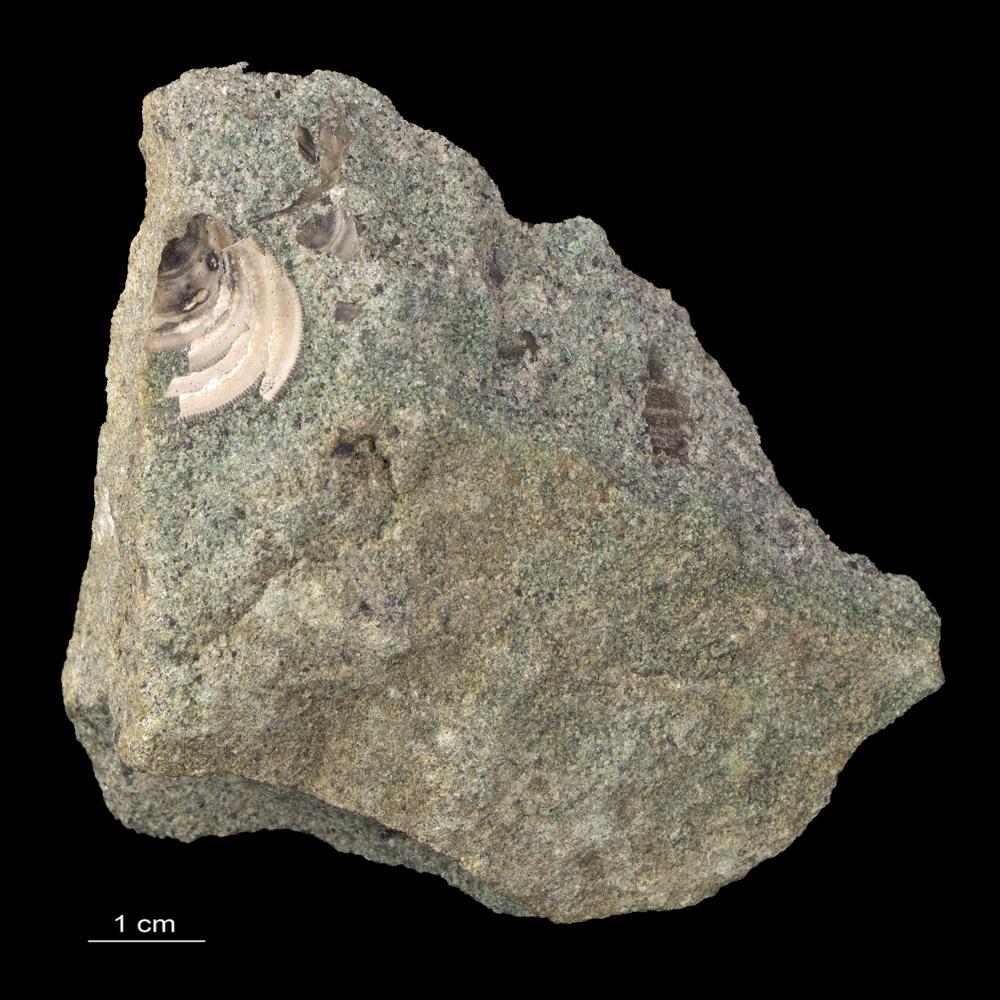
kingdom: Animalia
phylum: Brachiopoda
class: Lingulata
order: Lingulida
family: Zhanatellidae
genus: Thysanotos
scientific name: Thysanotos
